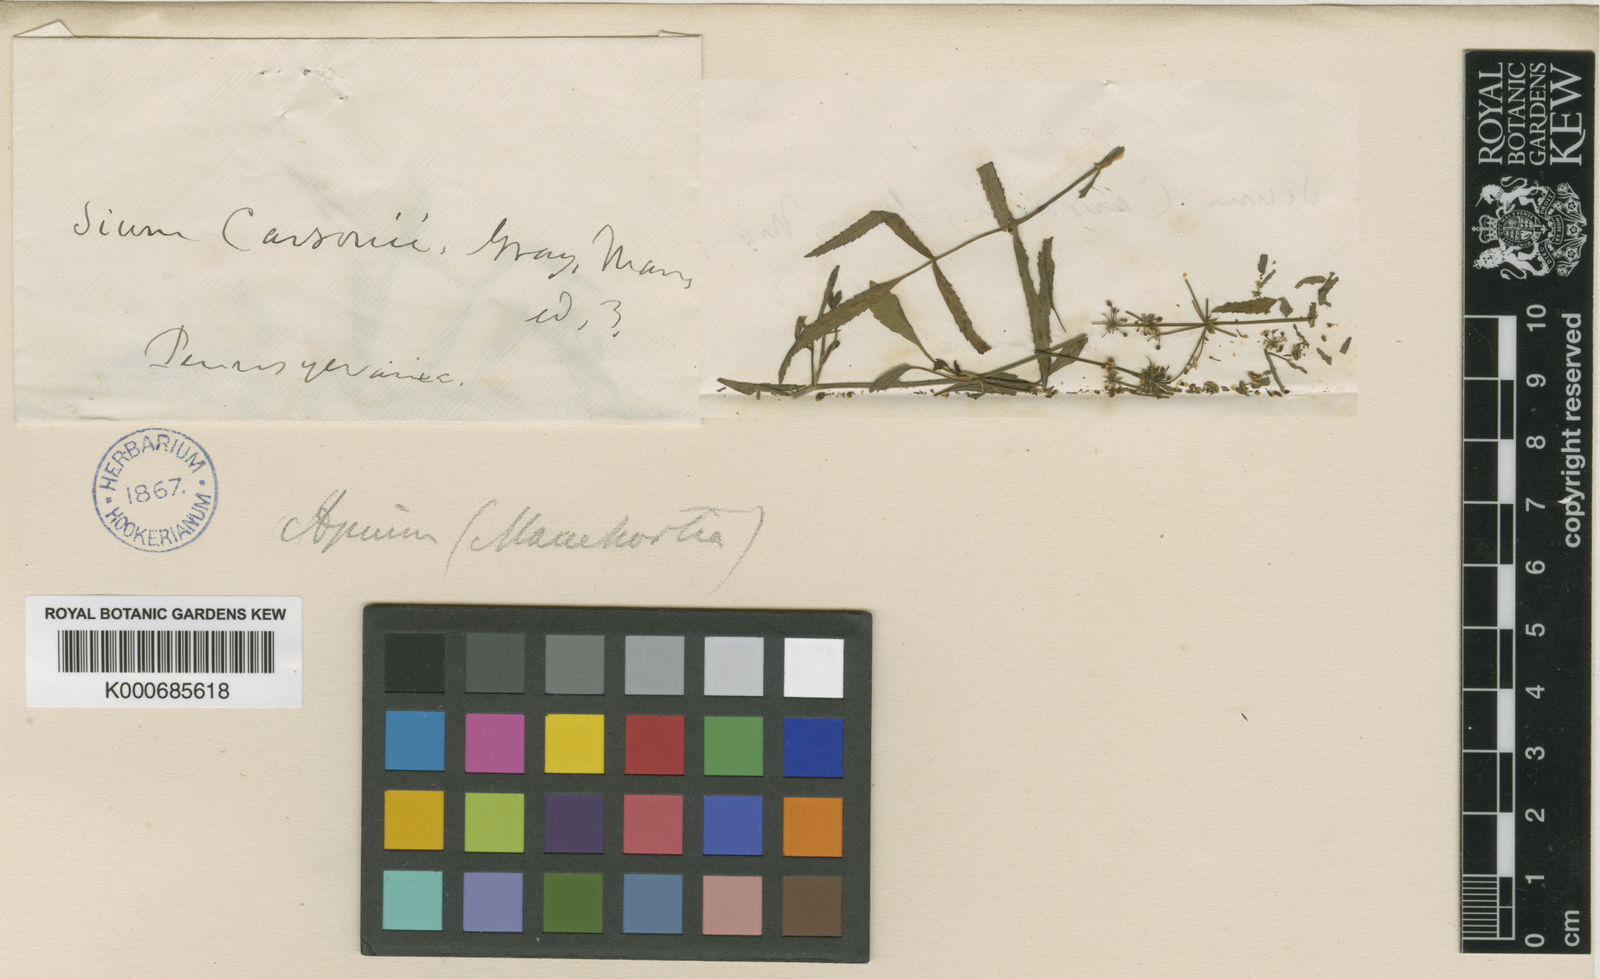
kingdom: Plantae
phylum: Tracheophyta
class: Magnoliopsida
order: Apiales
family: Apiaceae
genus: Sium
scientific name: Sium carsonii
